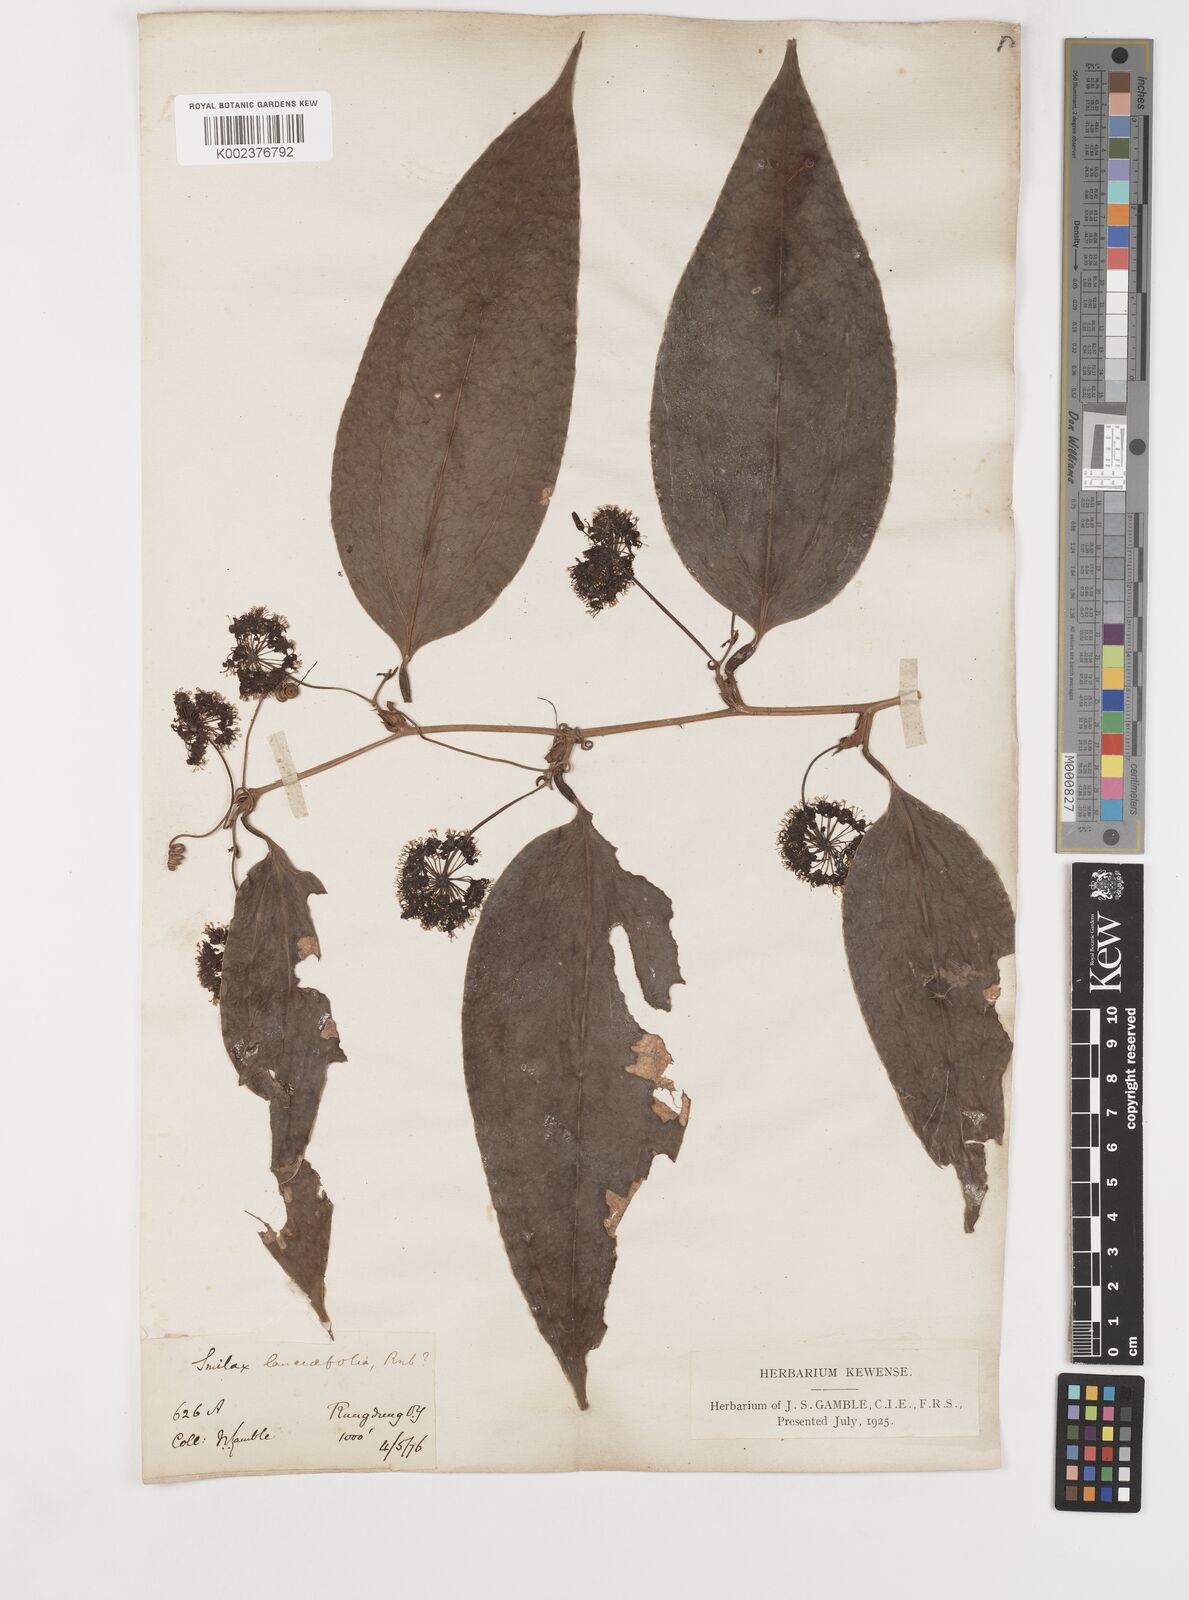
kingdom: Plantae
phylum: Tracheophyta
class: Liliopsida
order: Liliales
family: Smilacaceae
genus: Smilax
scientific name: Smilax orthoptera
